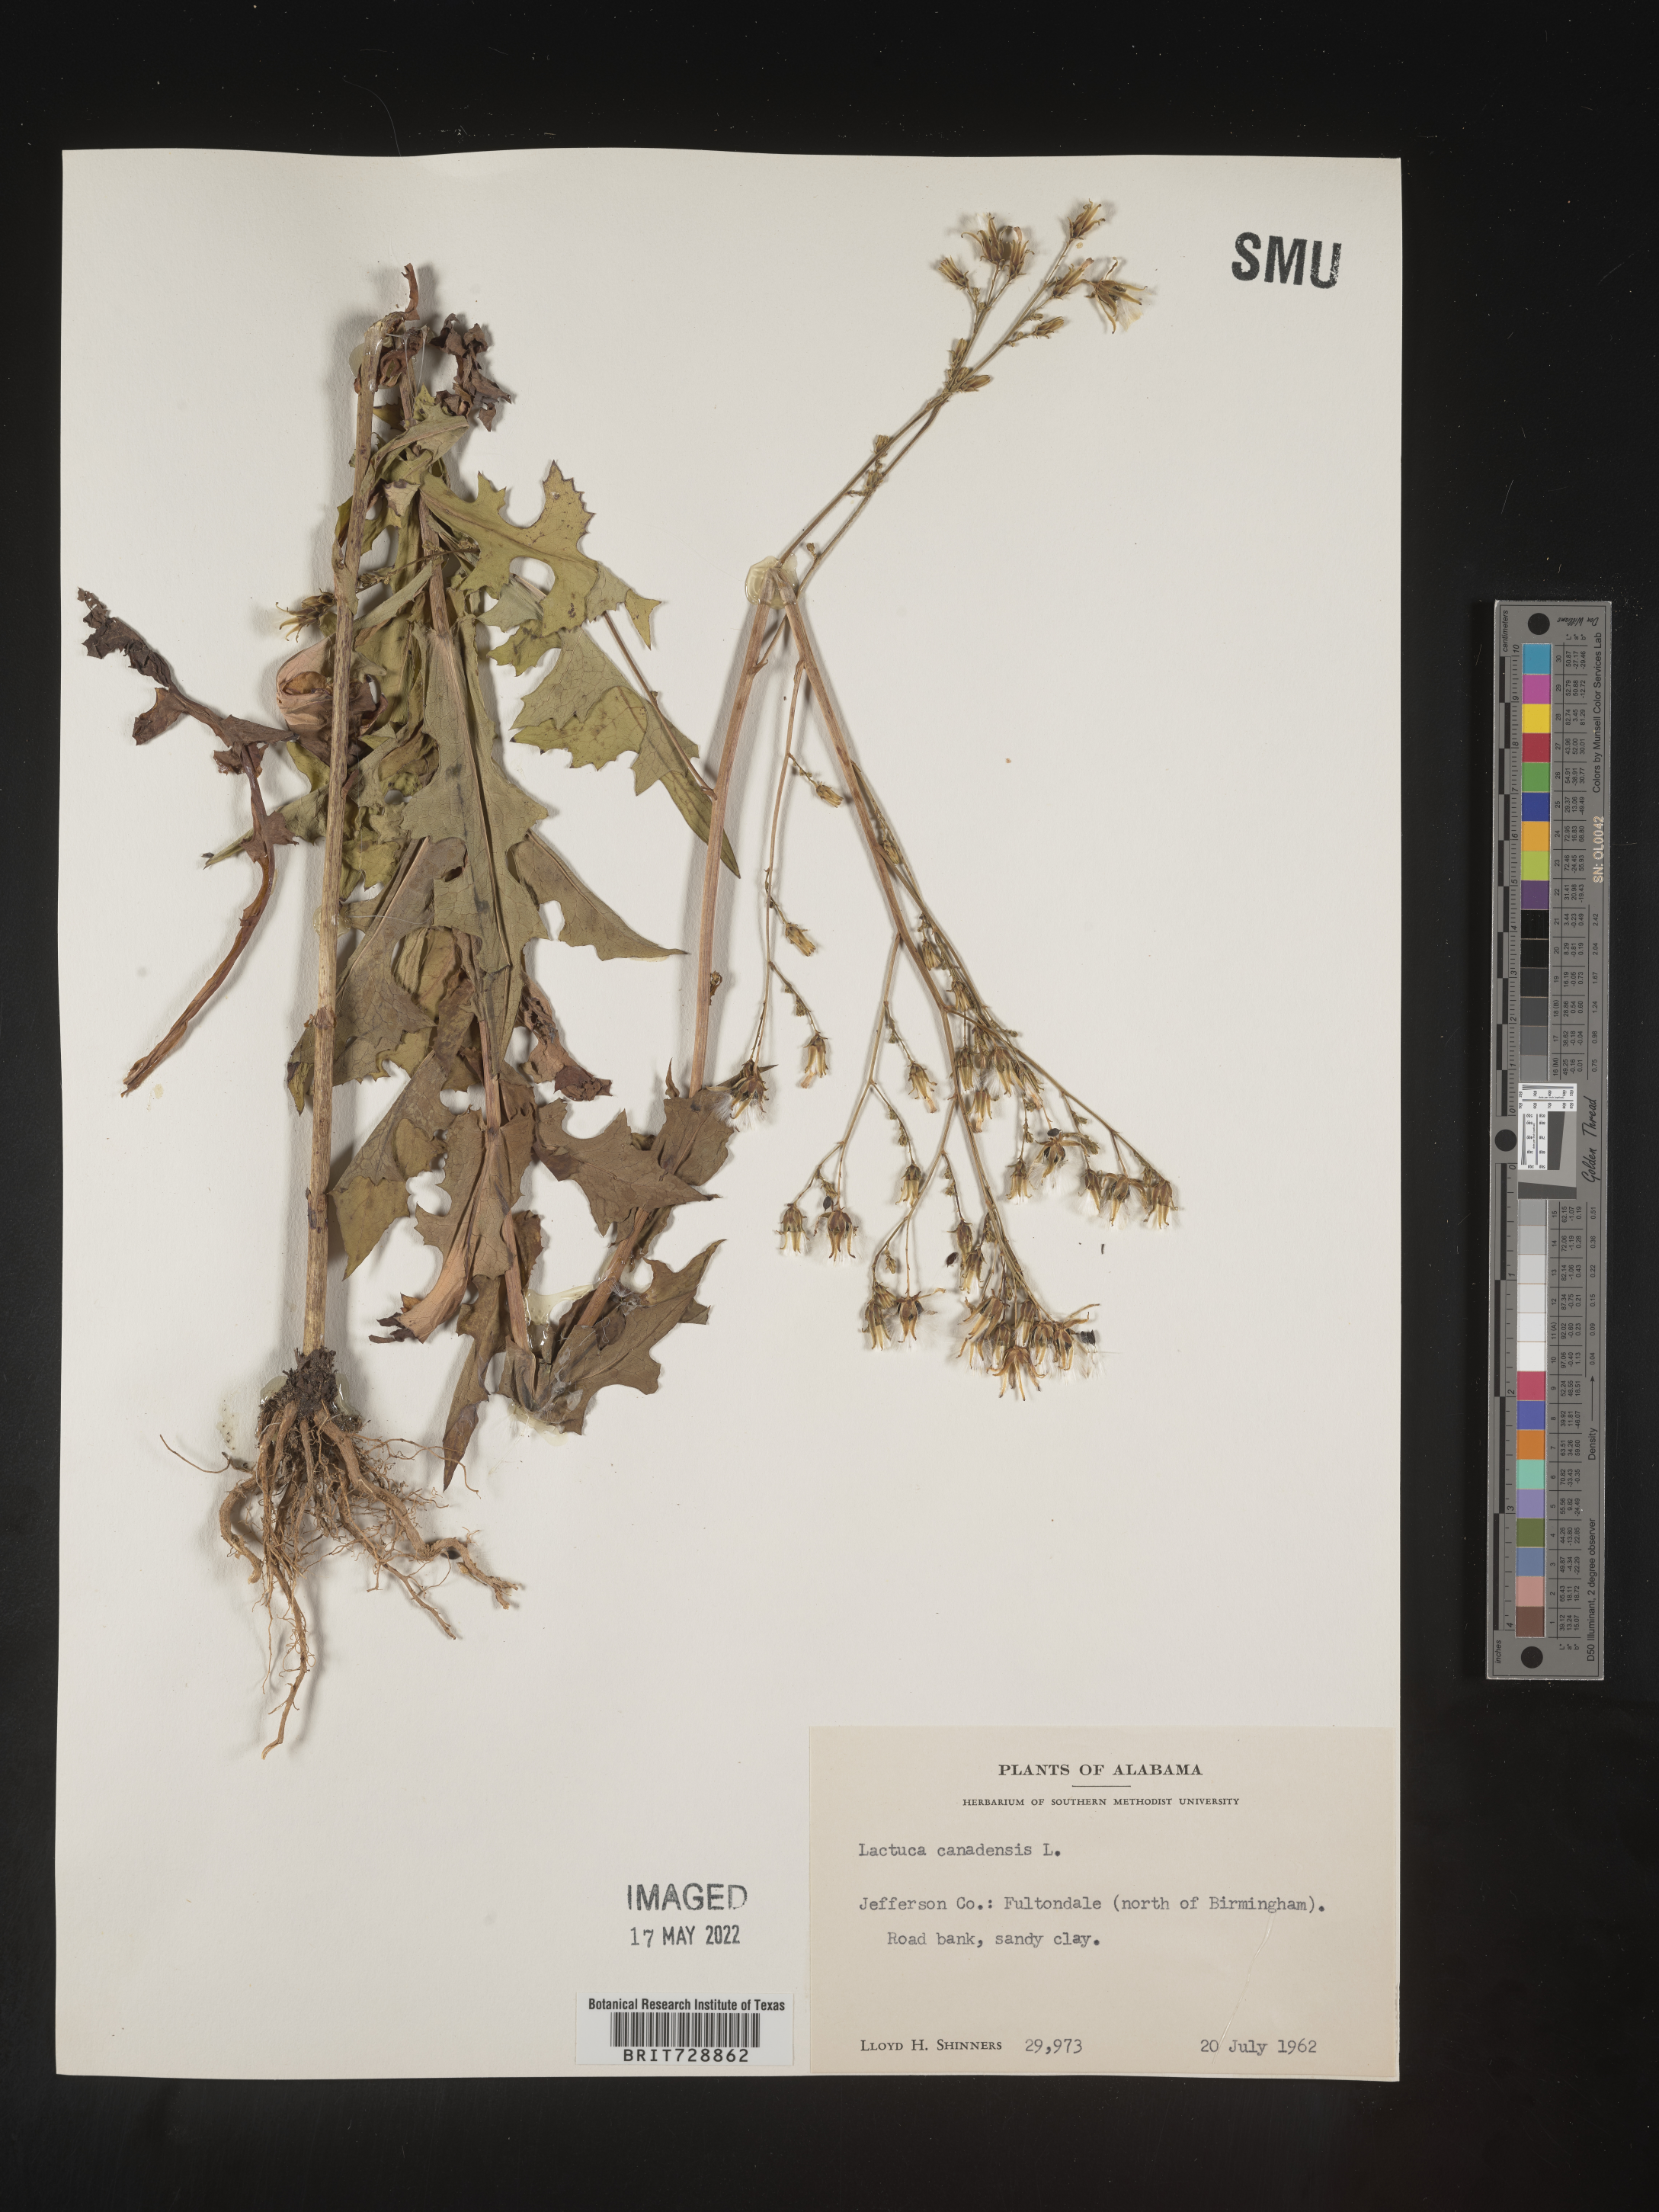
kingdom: Plantae
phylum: Tracheophyta
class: Magnoliopsida
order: Asterales
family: Asteraceae
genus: Lactuca
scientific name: Lactuca canadensis
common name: Canada lettuce
